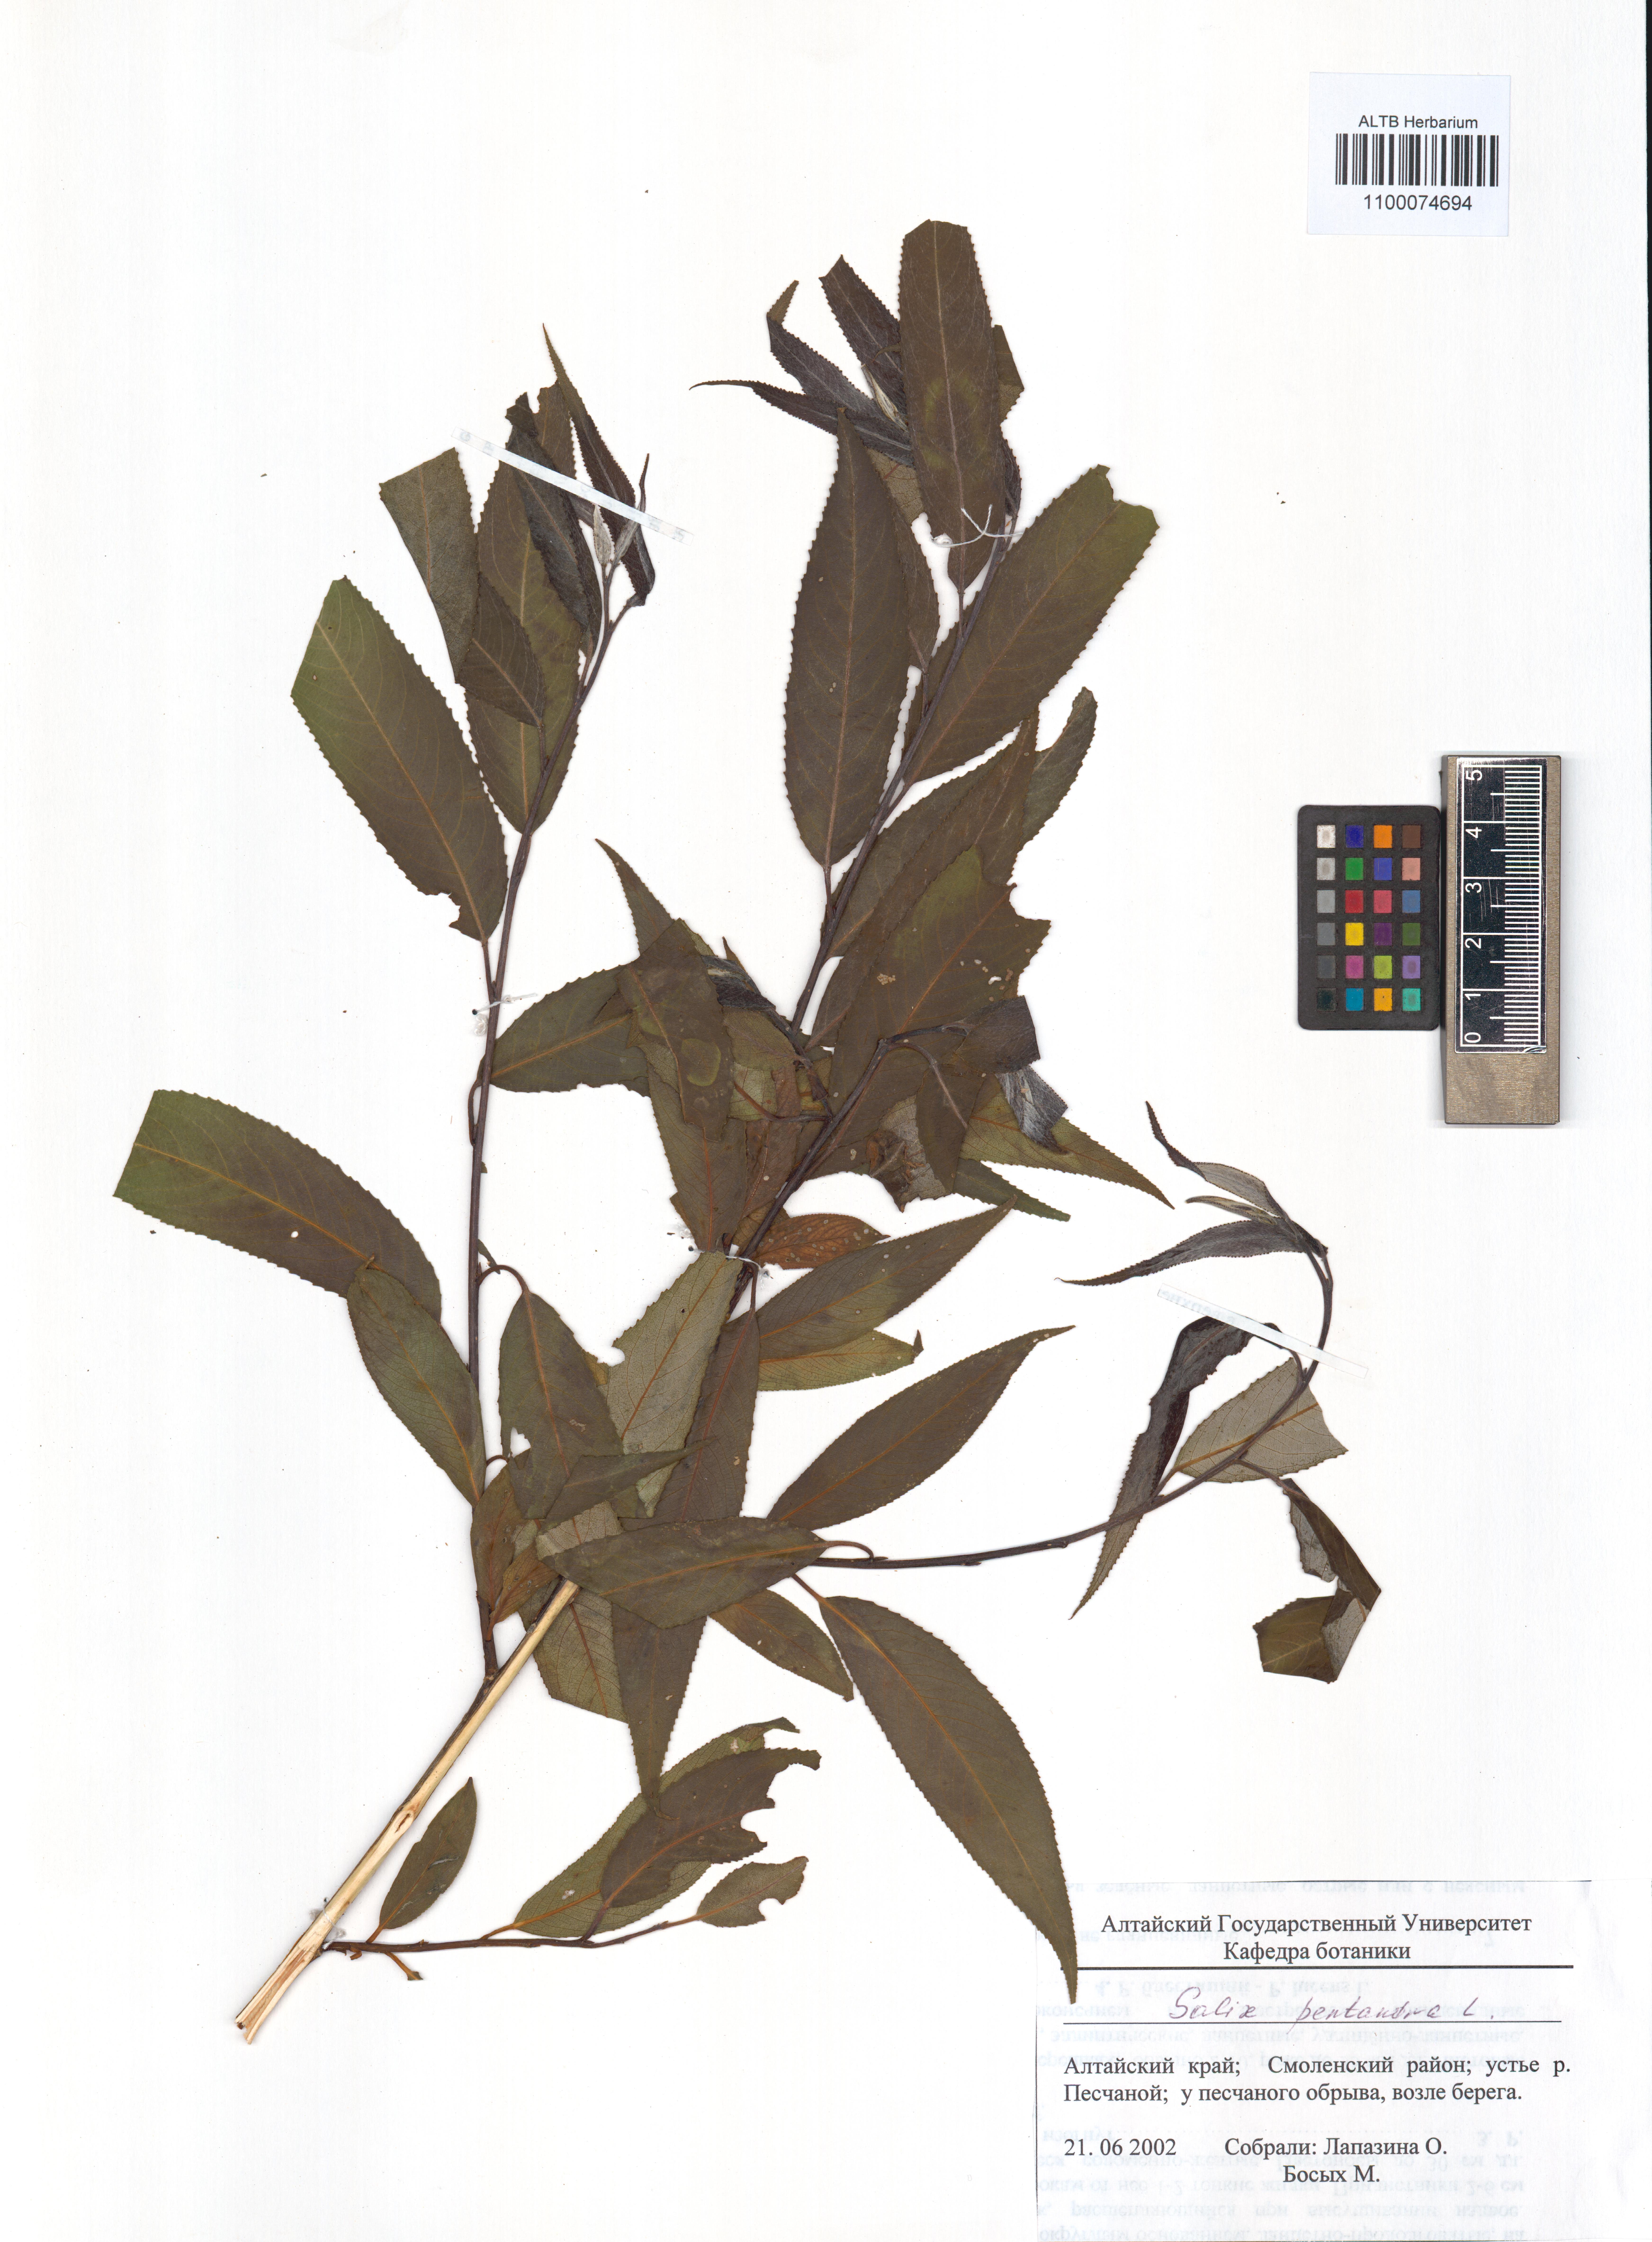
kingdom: Plantae
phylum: Tracheophyta
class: Magnoliopsida
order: Malpighiales
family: Salicaceae
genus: Salix
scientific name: Salix pentandra
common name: Bay willow
